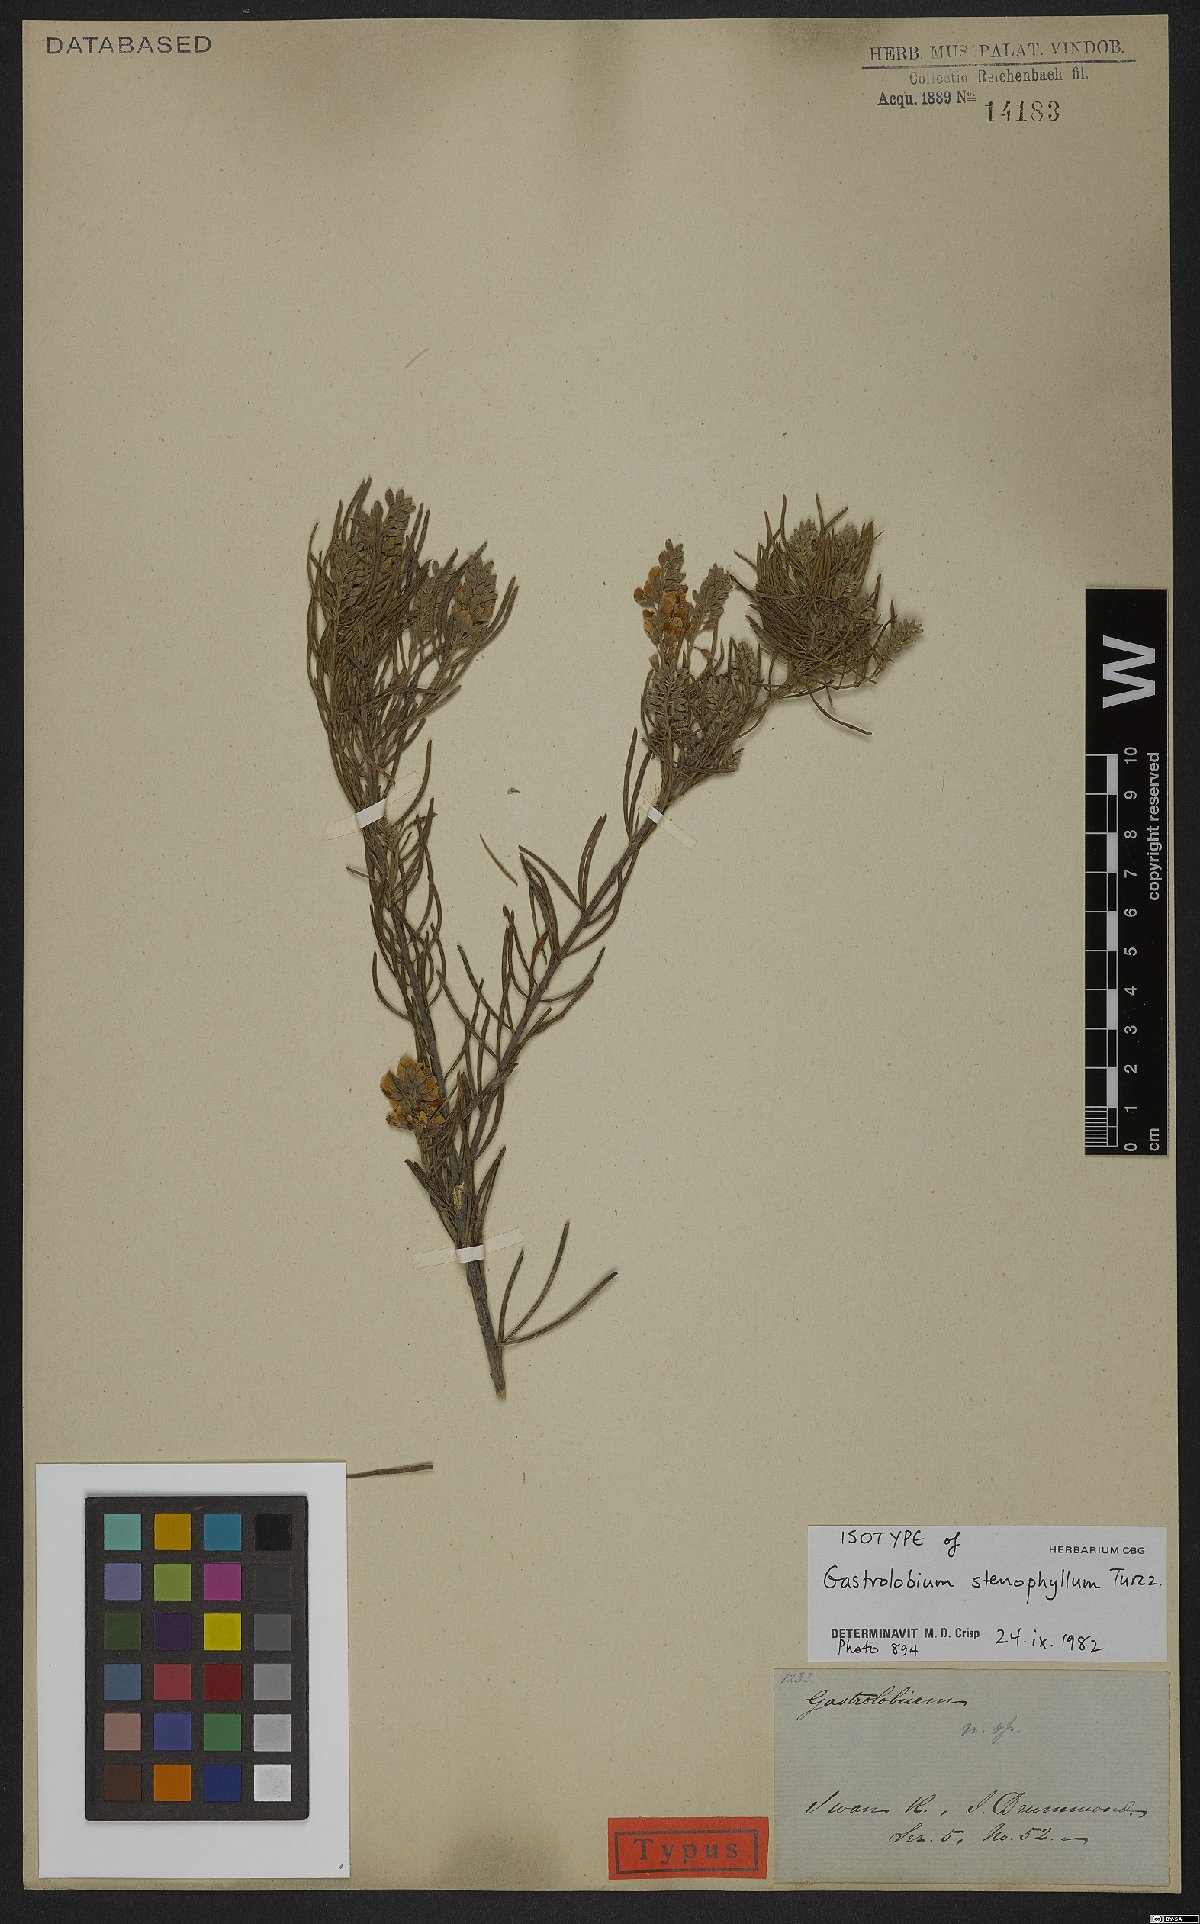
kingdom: Plantae
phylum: Tracheophyta
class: Magnoliopsida
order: Fabales
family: Fabaceae
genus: Gastrolobium
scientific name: Gastrolobium stenophyllum
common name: Narrow-leaf poison
